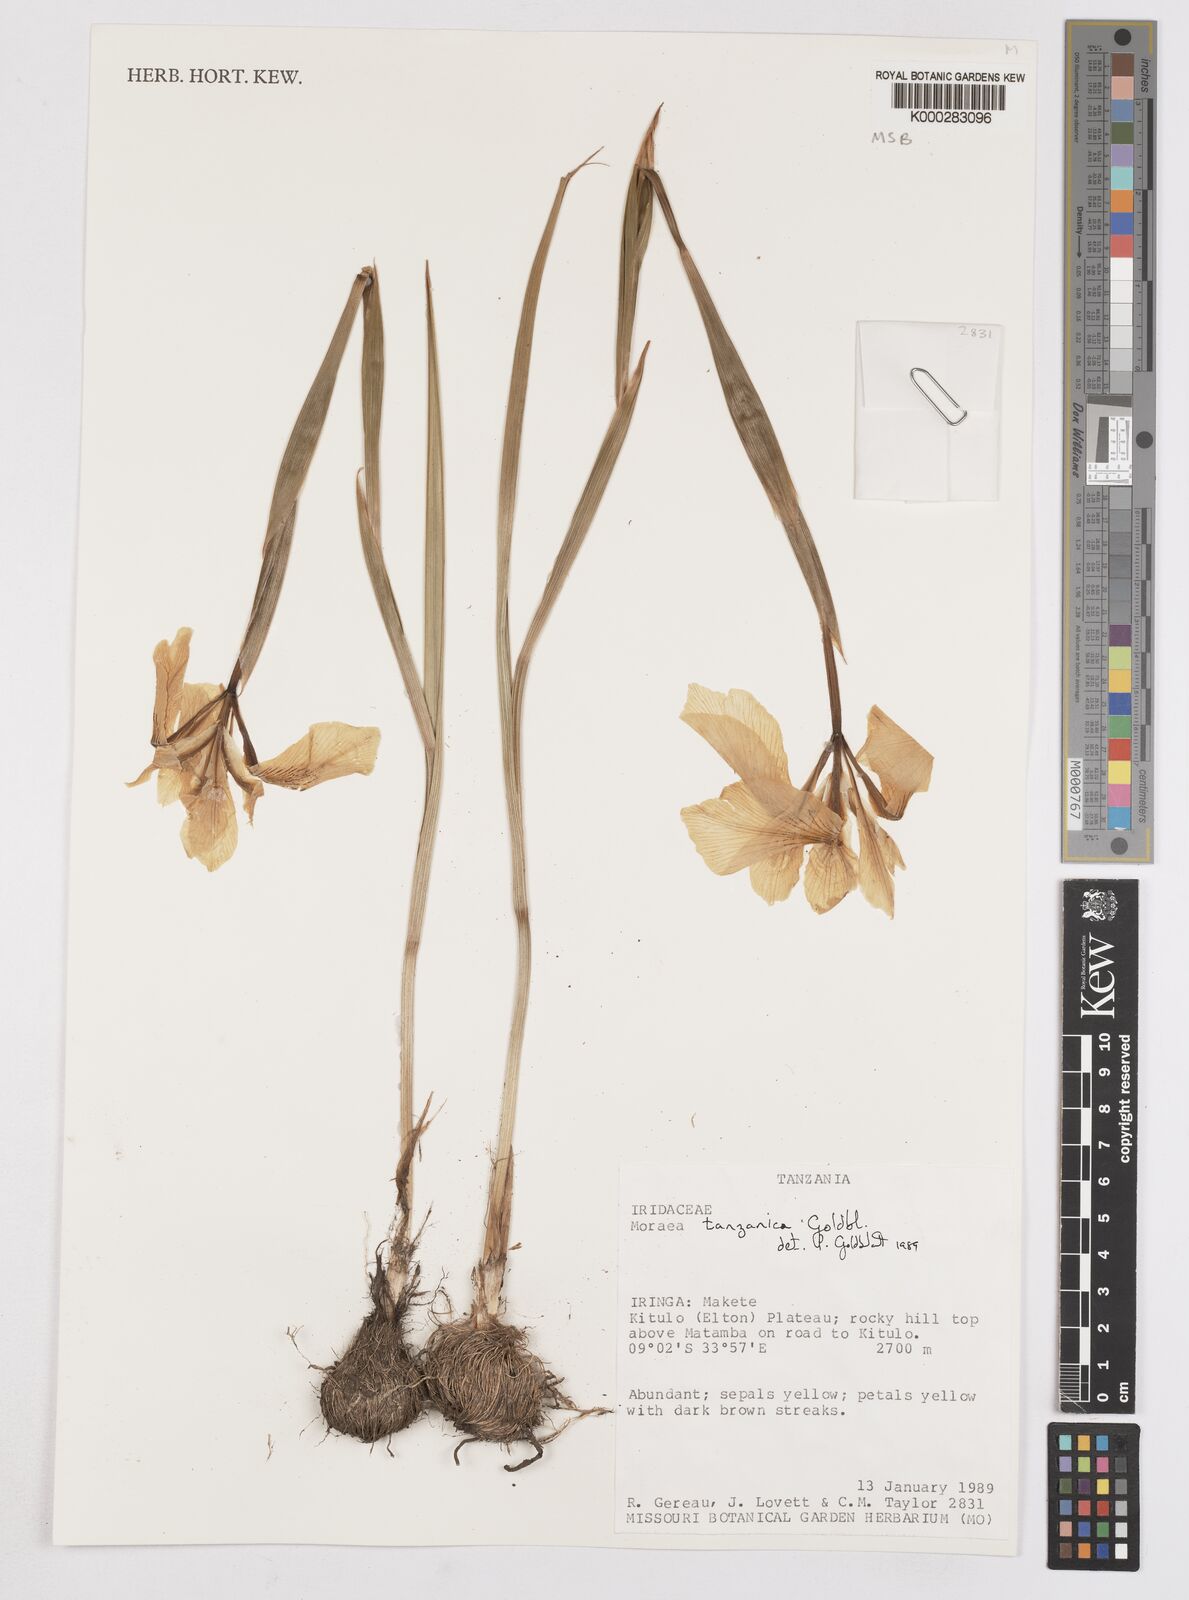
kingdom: Plantae
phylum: Tracheophyta
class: Liliopsida
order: Asparagales
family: Iridaceae
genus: Moraea
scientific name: Moraea tanzanica
